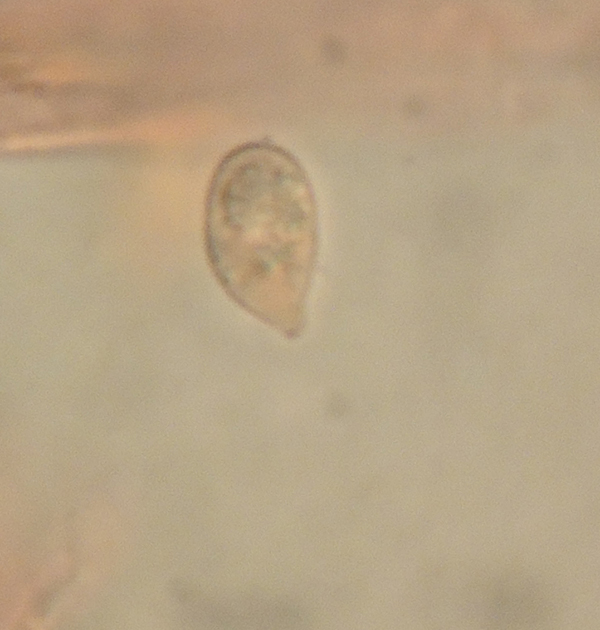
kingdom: Fungi
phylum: Basidiomycota
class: Agaricomycetes
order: Russulales
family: Peniophoraceae
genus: Vararia
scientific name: Vararia cremeoavellanea
